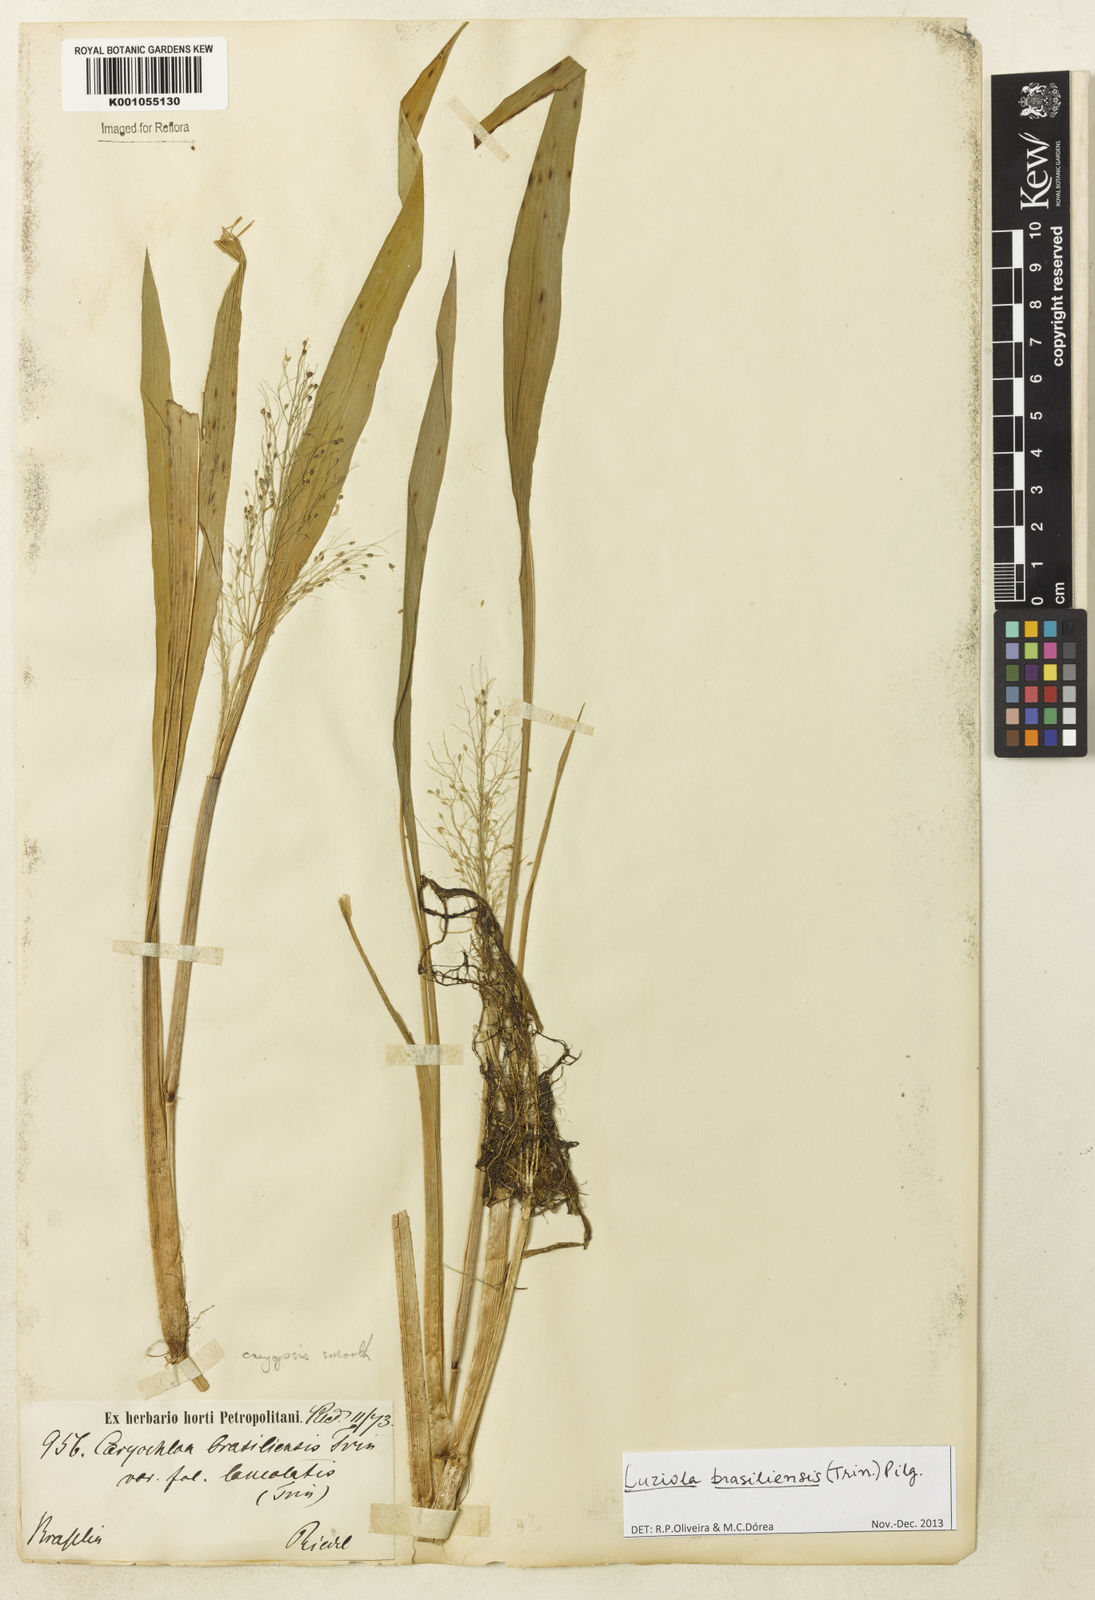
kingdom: Plantae
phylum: Tracheophyta
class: Liliopsida
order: Poales
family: Poaceae
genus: Luziola
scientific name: Luziola
